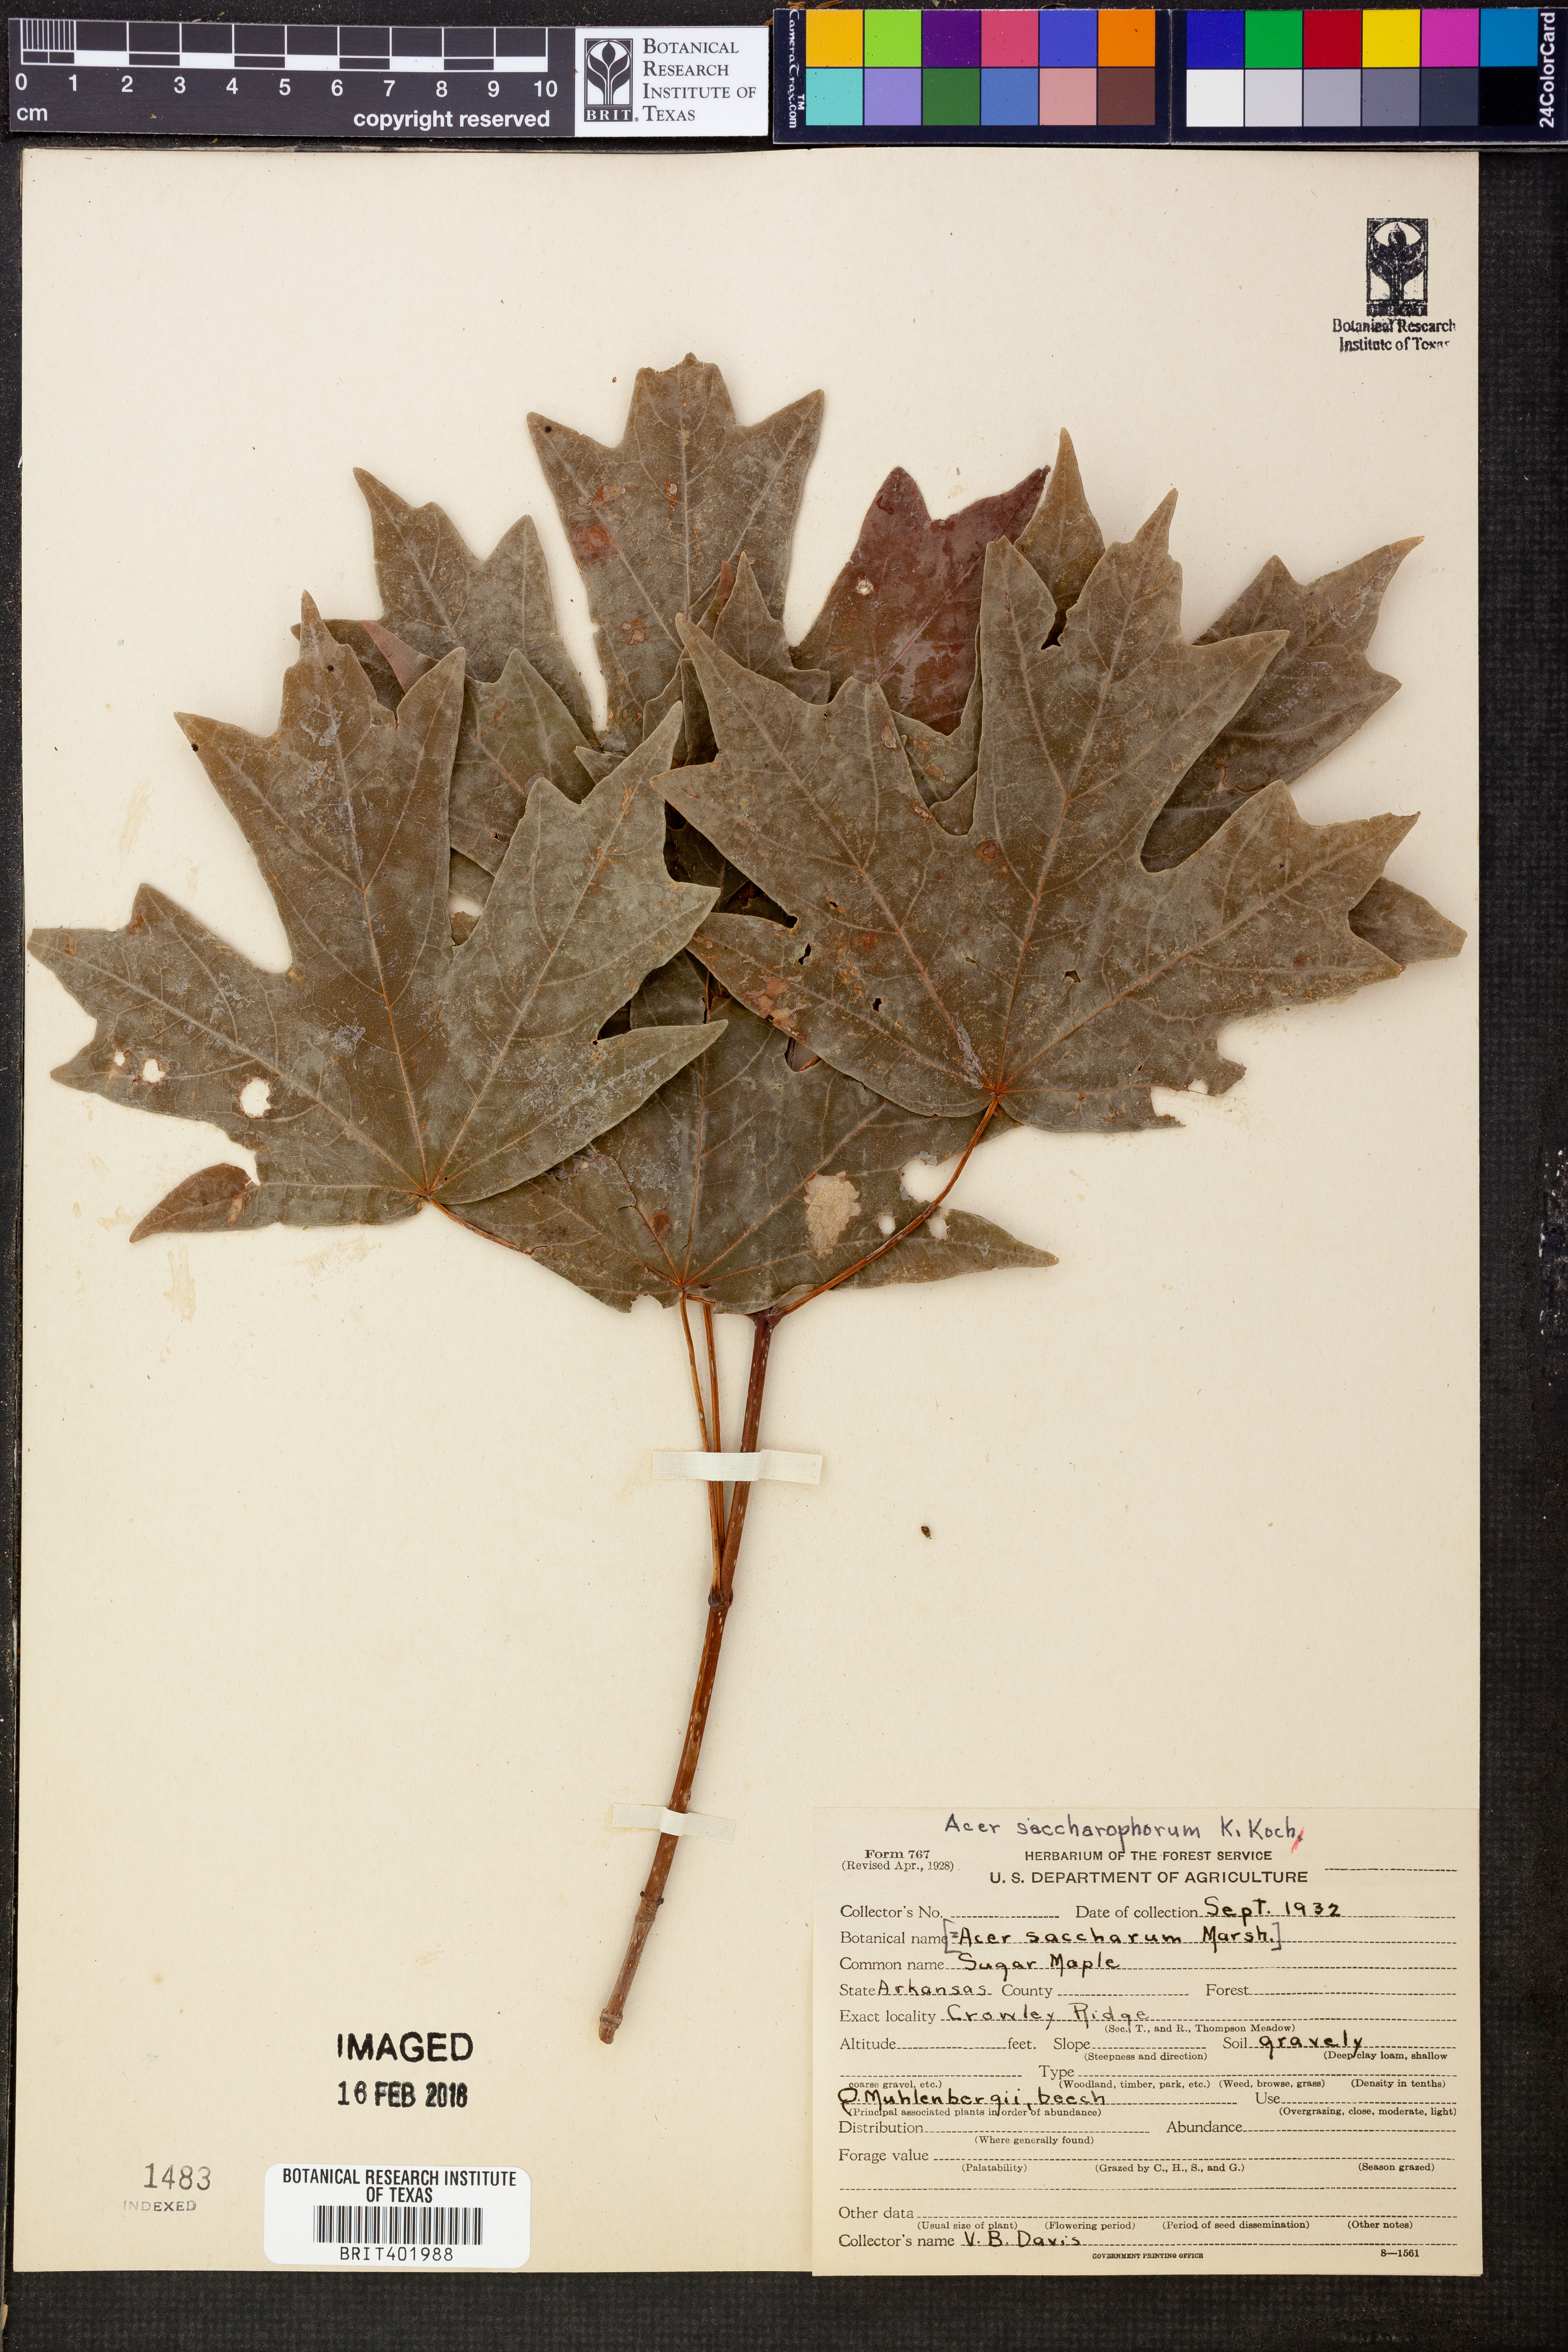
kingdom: Plantae
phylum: Tracheophyta
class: Magnoliopsida
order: Sapindales
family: Sapindaceae
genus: Acer
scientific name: Acer saccharinum
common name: Silver maple
